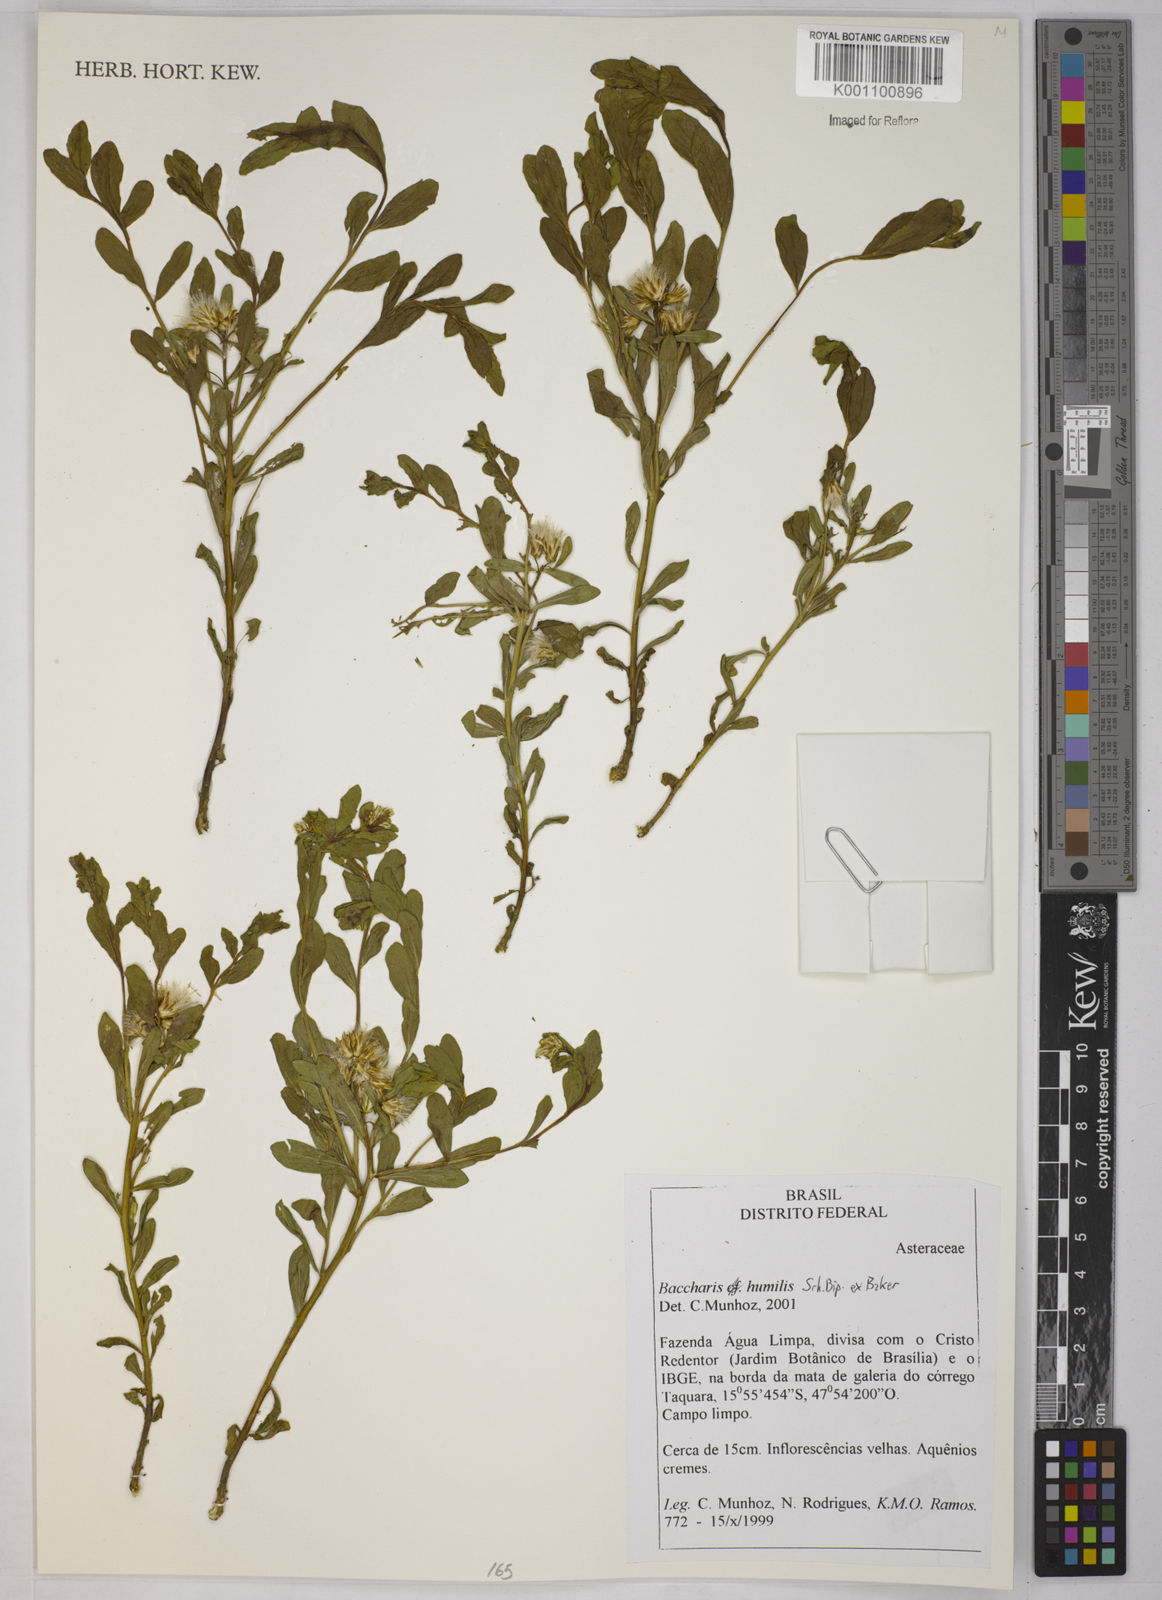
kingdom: Plantae
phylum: Tracheophyta
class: Magnoliopsida
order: Asterales
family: Asteraceae
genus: Baccharis
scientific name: Baccharis humilis
